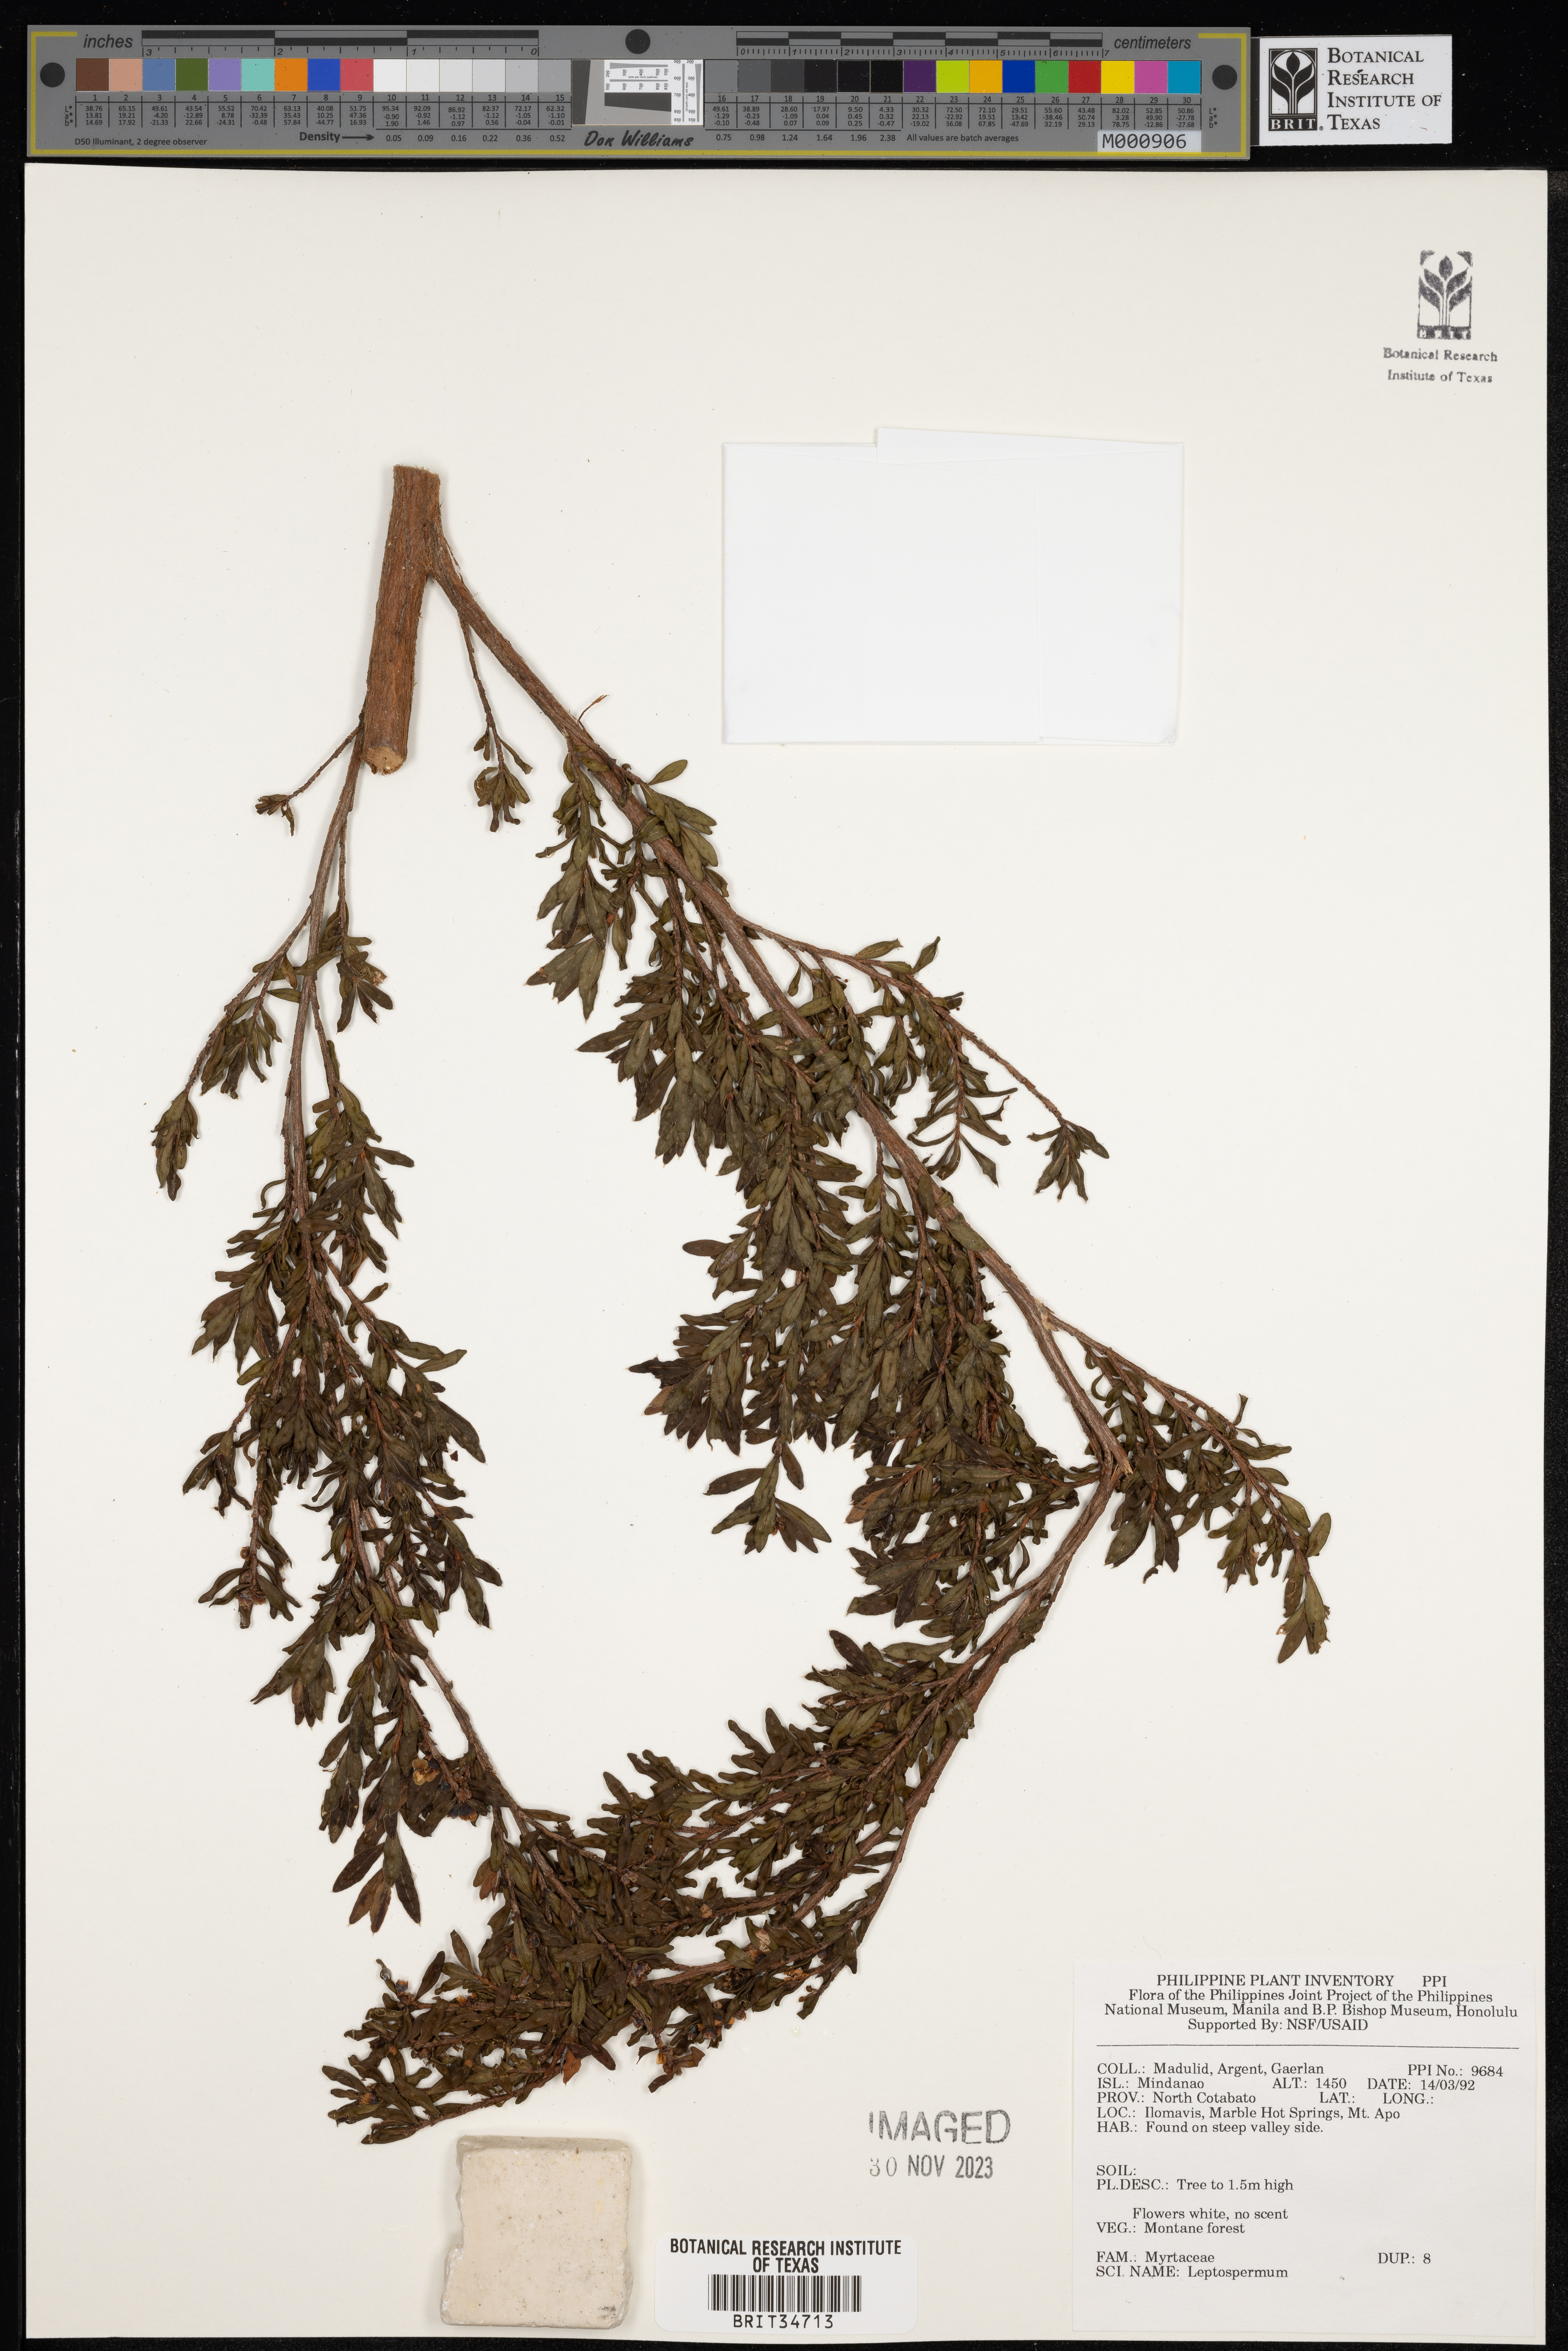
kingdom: Plantae
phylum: Tracheophyta
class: Magnoliopsida
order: Myrtales
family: Myrtaceae
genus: Leptospermum
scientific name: Leptospermum
